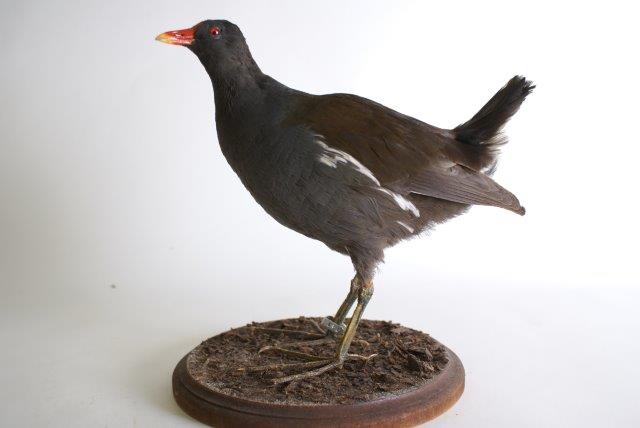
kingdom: Animalia
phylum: Chordata
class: Aves
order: Gruiformes
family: Rallidae
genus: Gallinula
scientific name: Gallinula chloropus
